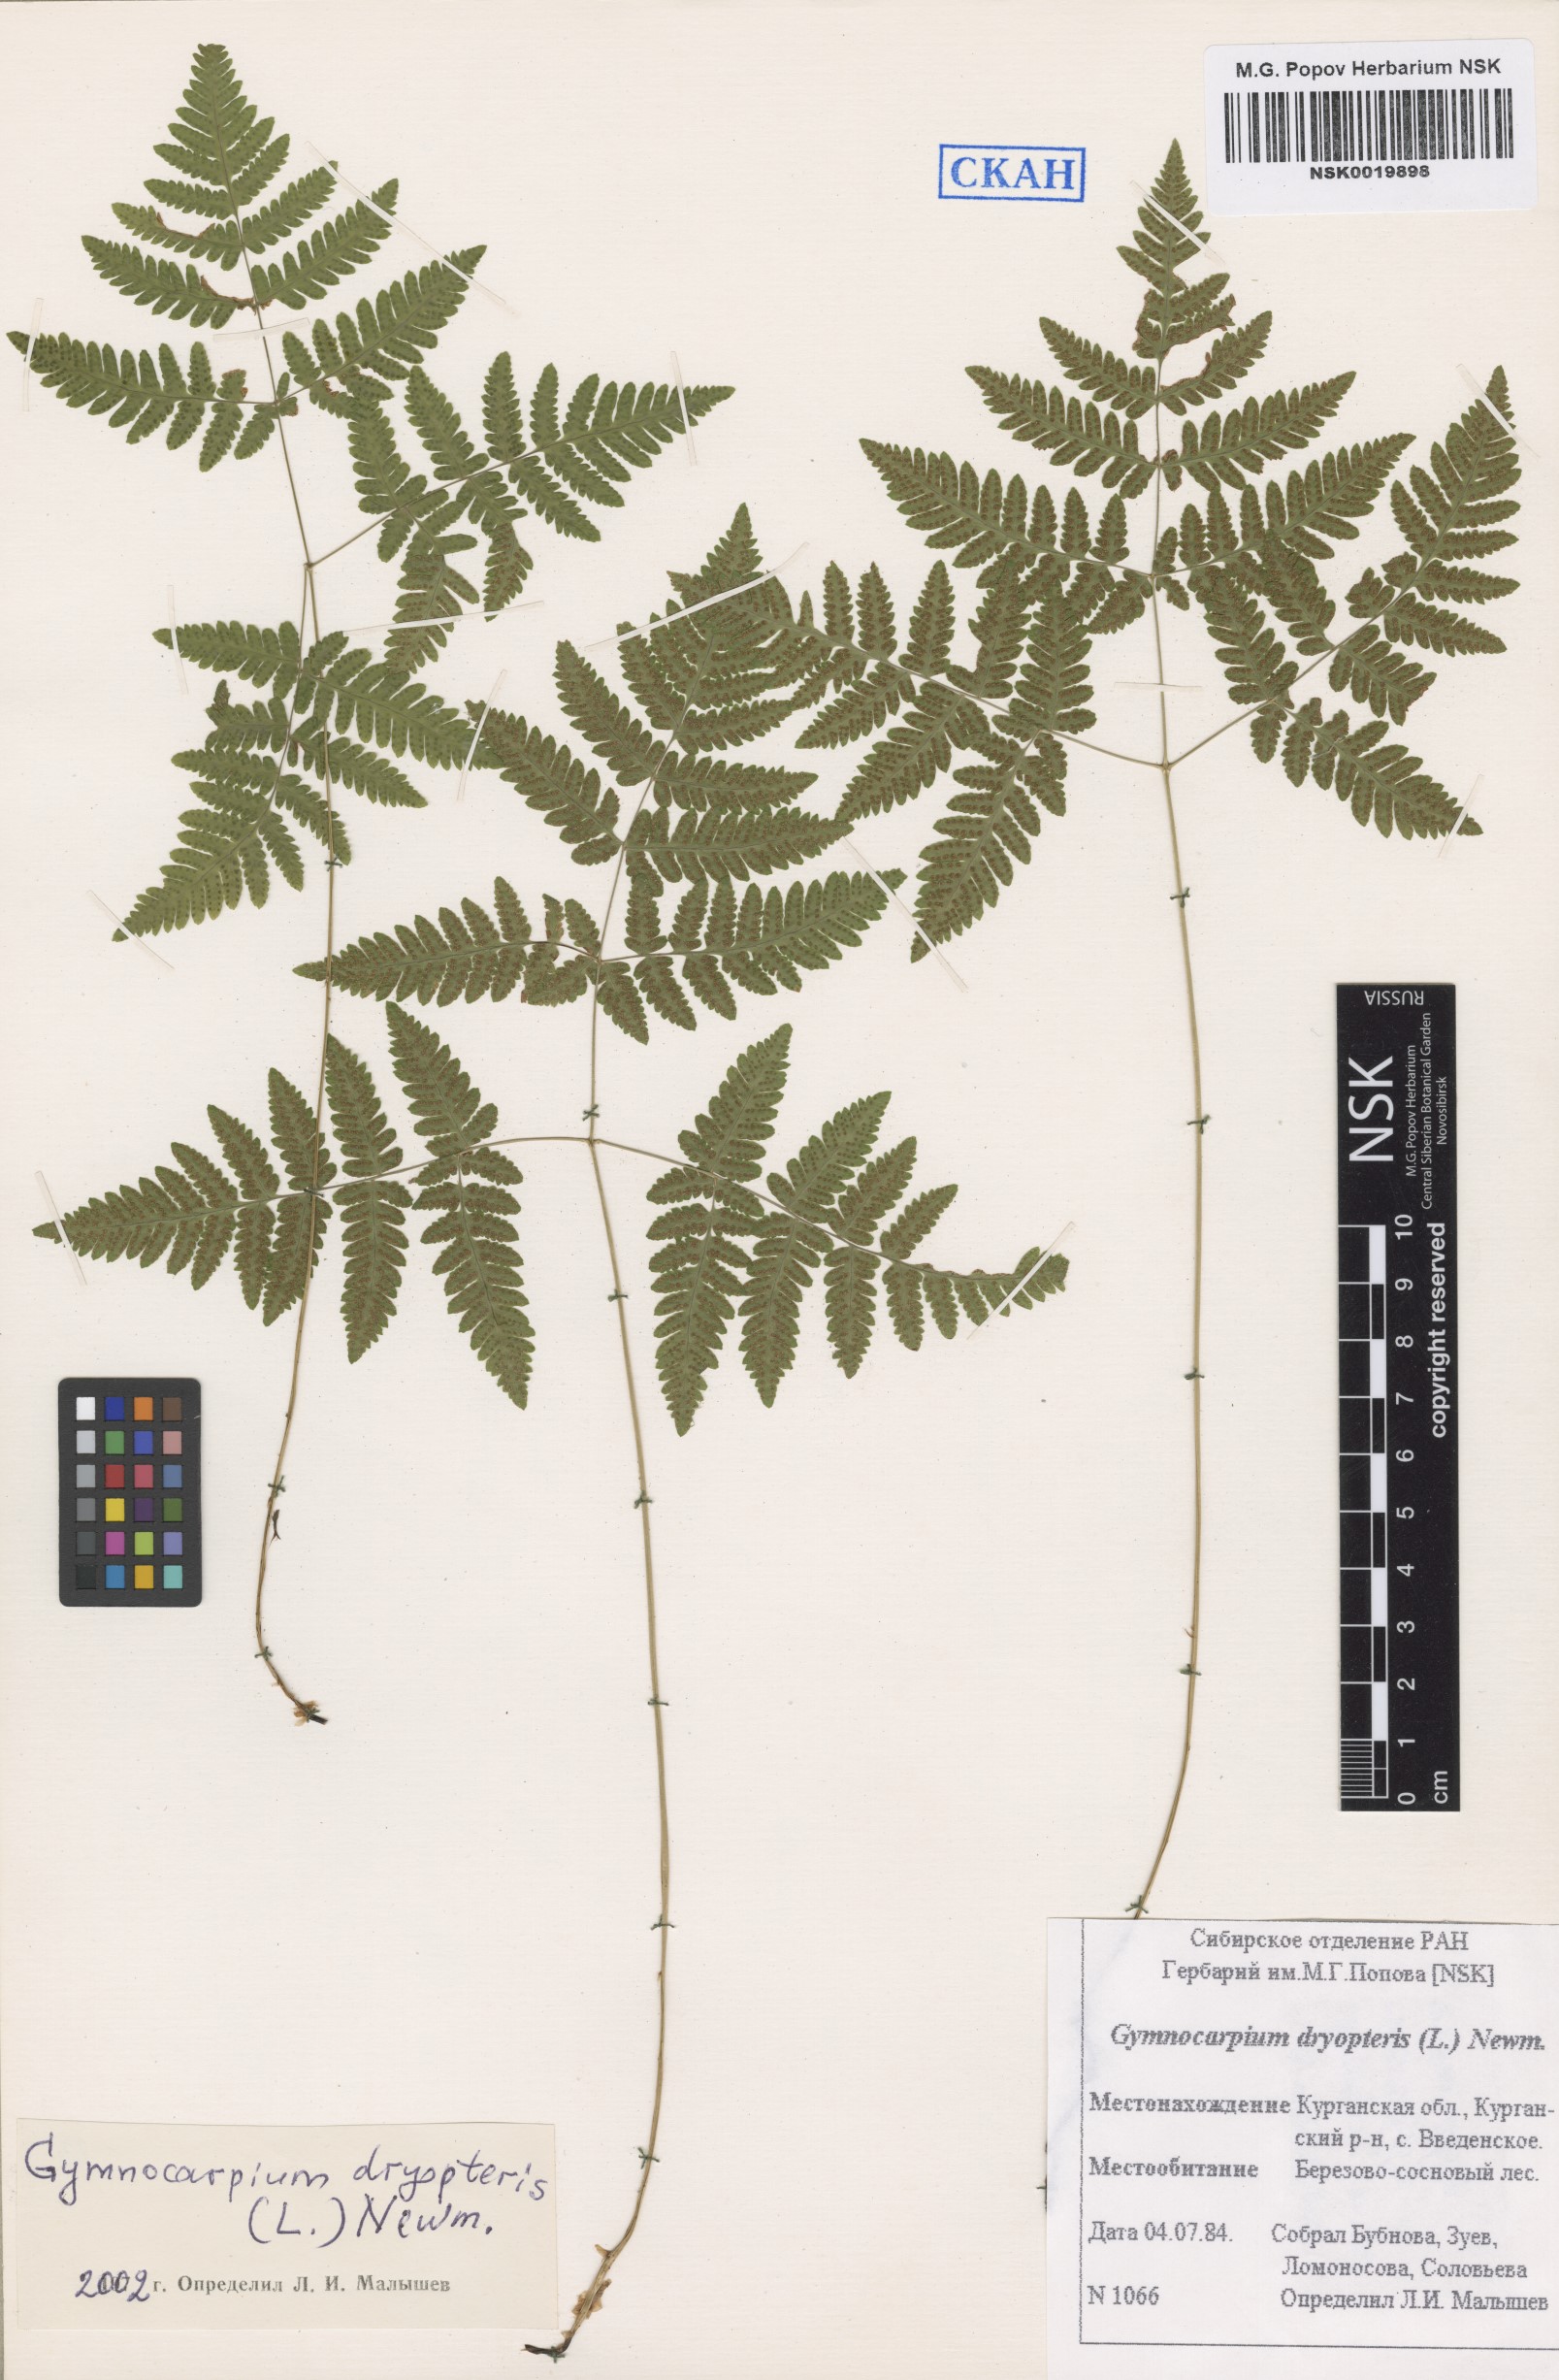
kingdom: Plantae
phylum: Tracheophyta
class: Polypodiopsida
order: Polypodiales
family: Cystopteridaceae
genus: Gymnocarpium
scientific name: Gymnocarpium dryopteris
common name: Oak fern
